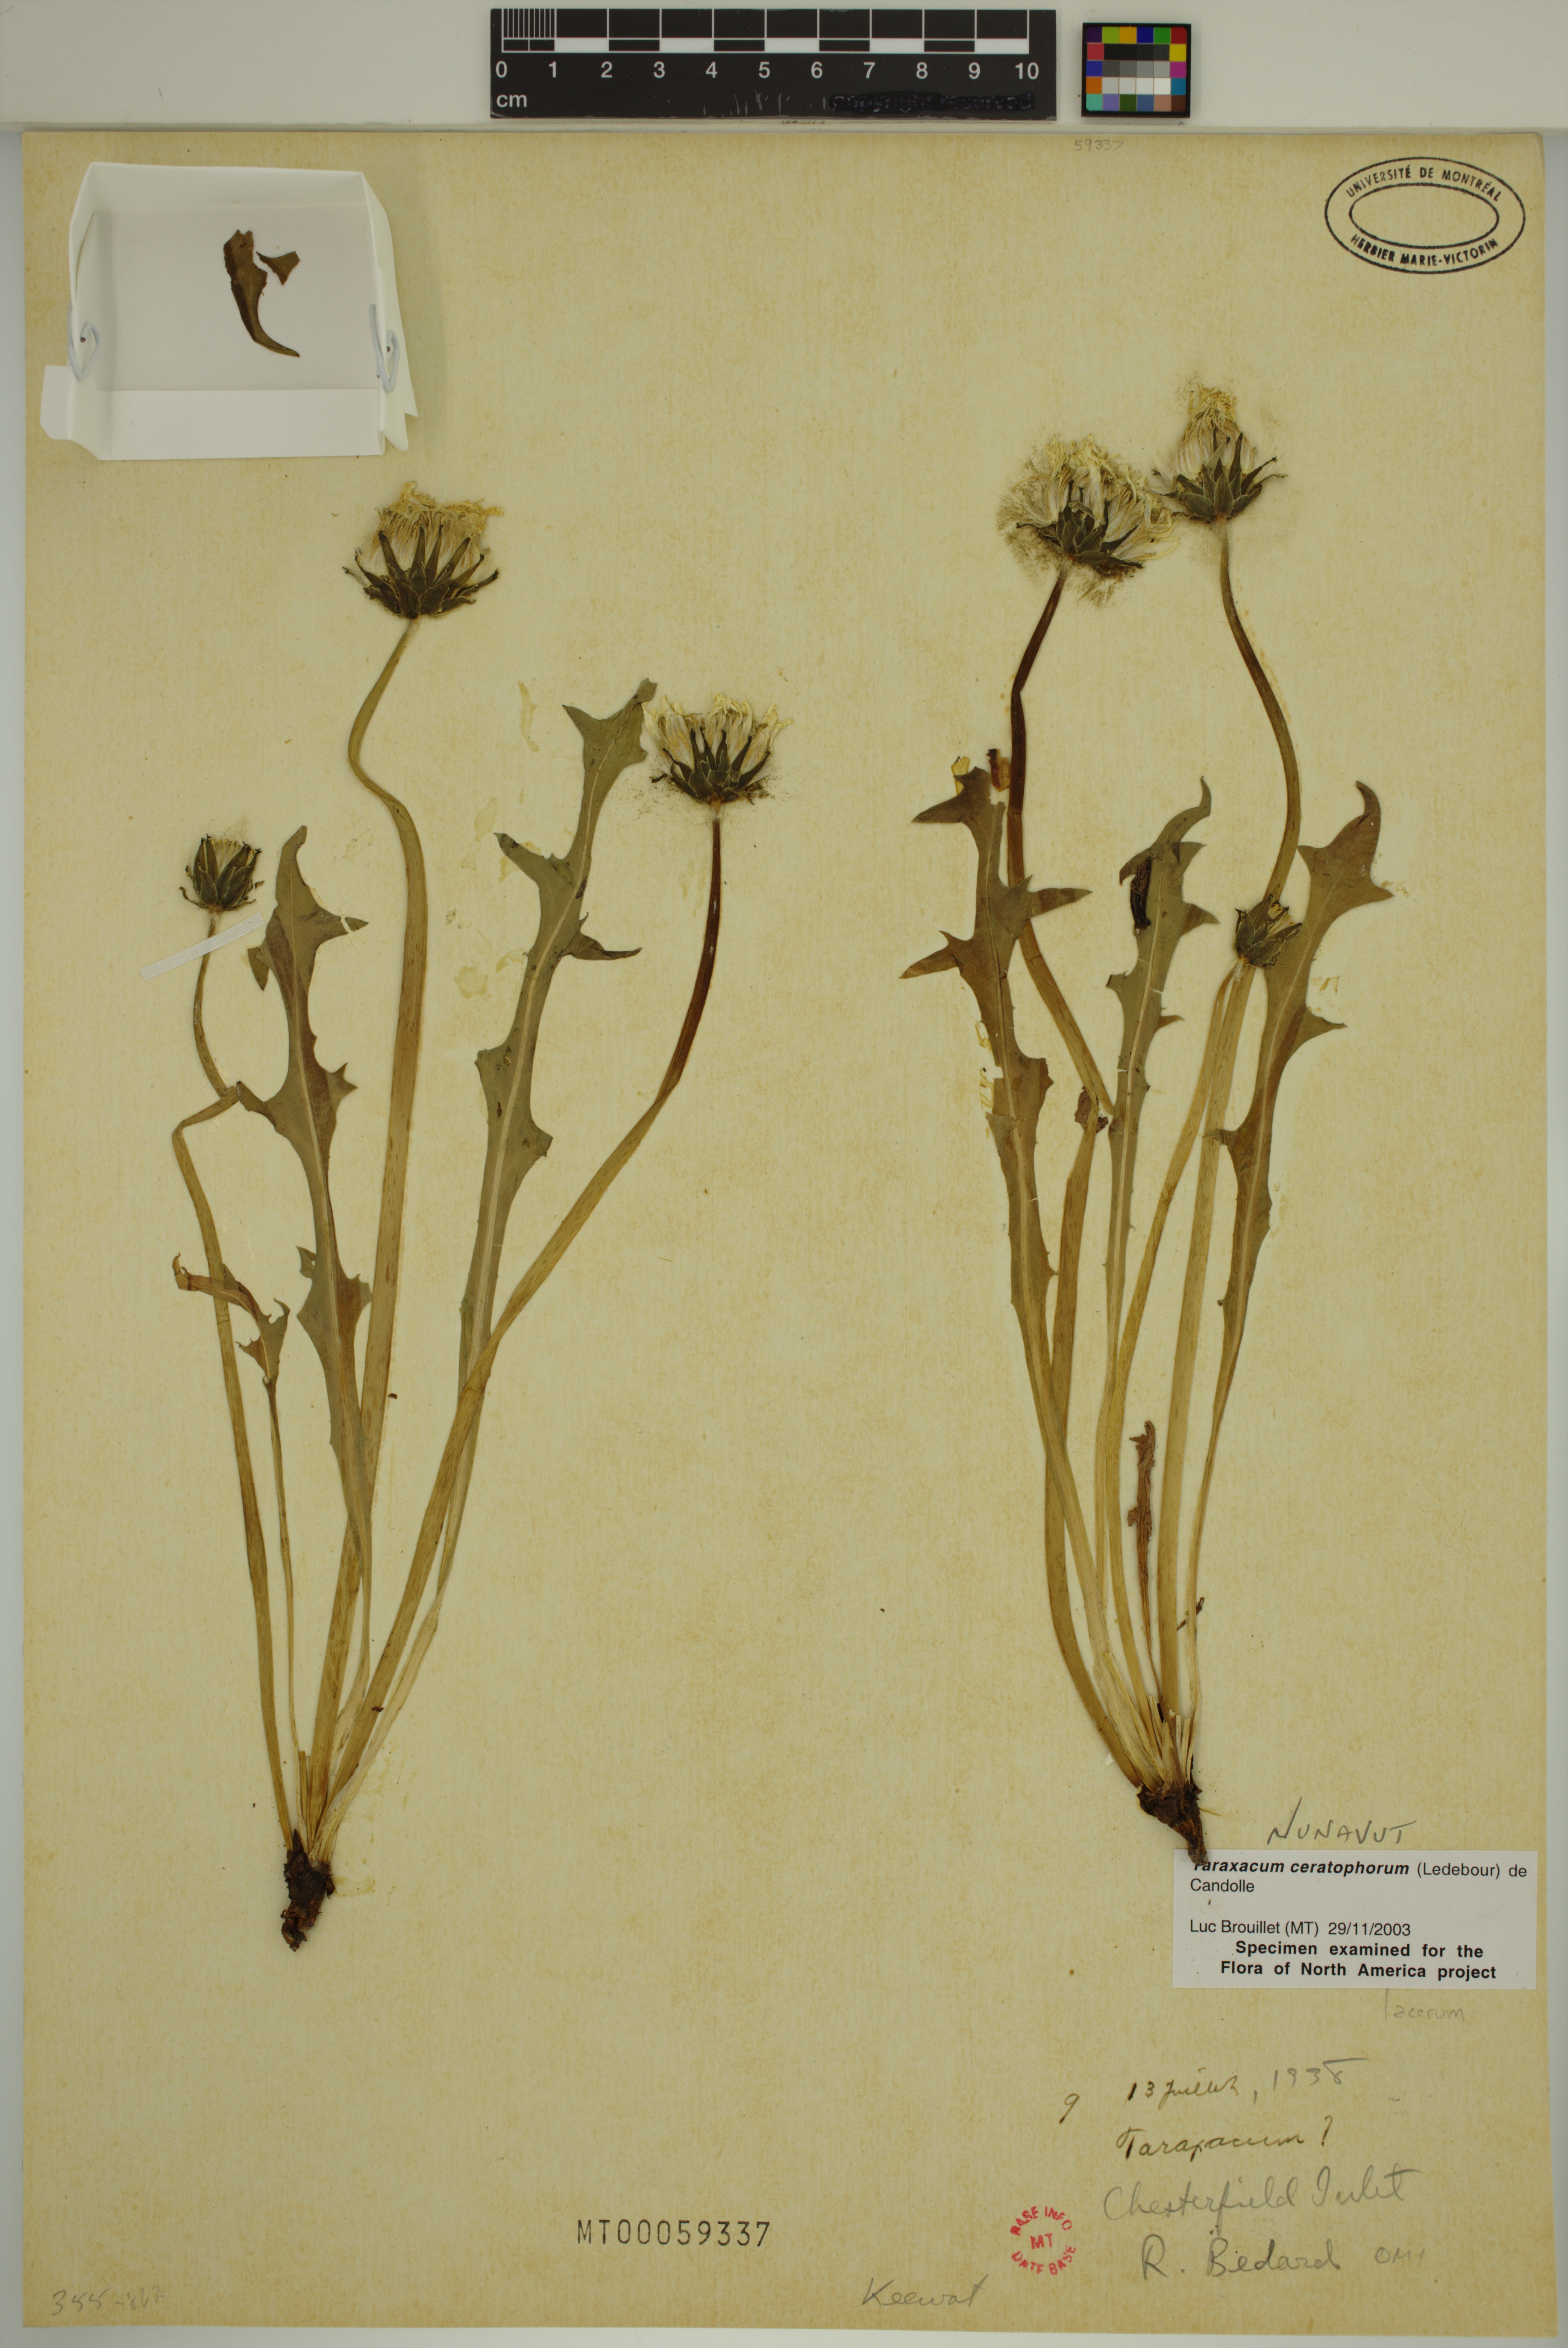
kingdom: Plantae
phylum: Tracheophyta
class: Magnoliopsida
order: Asterales
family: Asteraceae
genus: Taraxacum
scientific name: Taraxacum ceratophorum
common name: Horn-bearing dandelion
